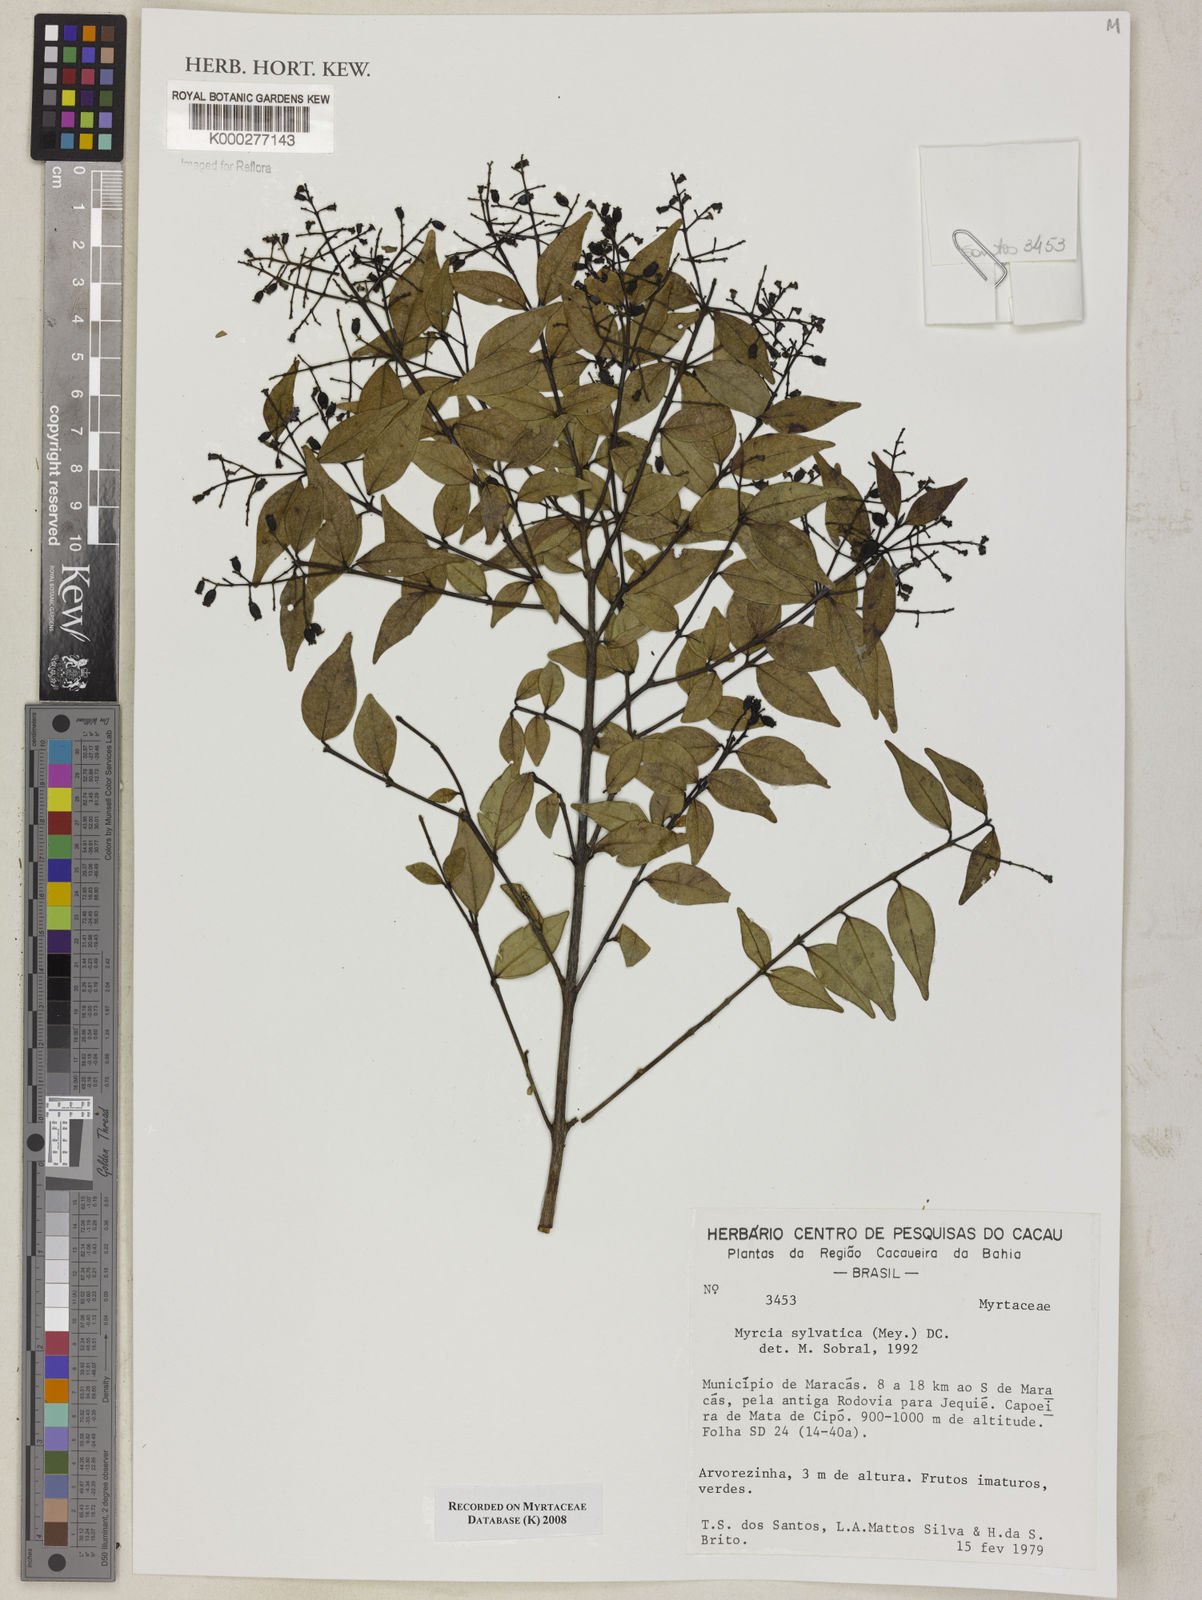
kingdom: Plantae
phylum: Tracheophyta
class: Magnoliopsida
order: Myrtales
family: Myrtaceae
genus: Myrcia
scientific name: Myrcia sylvatica
